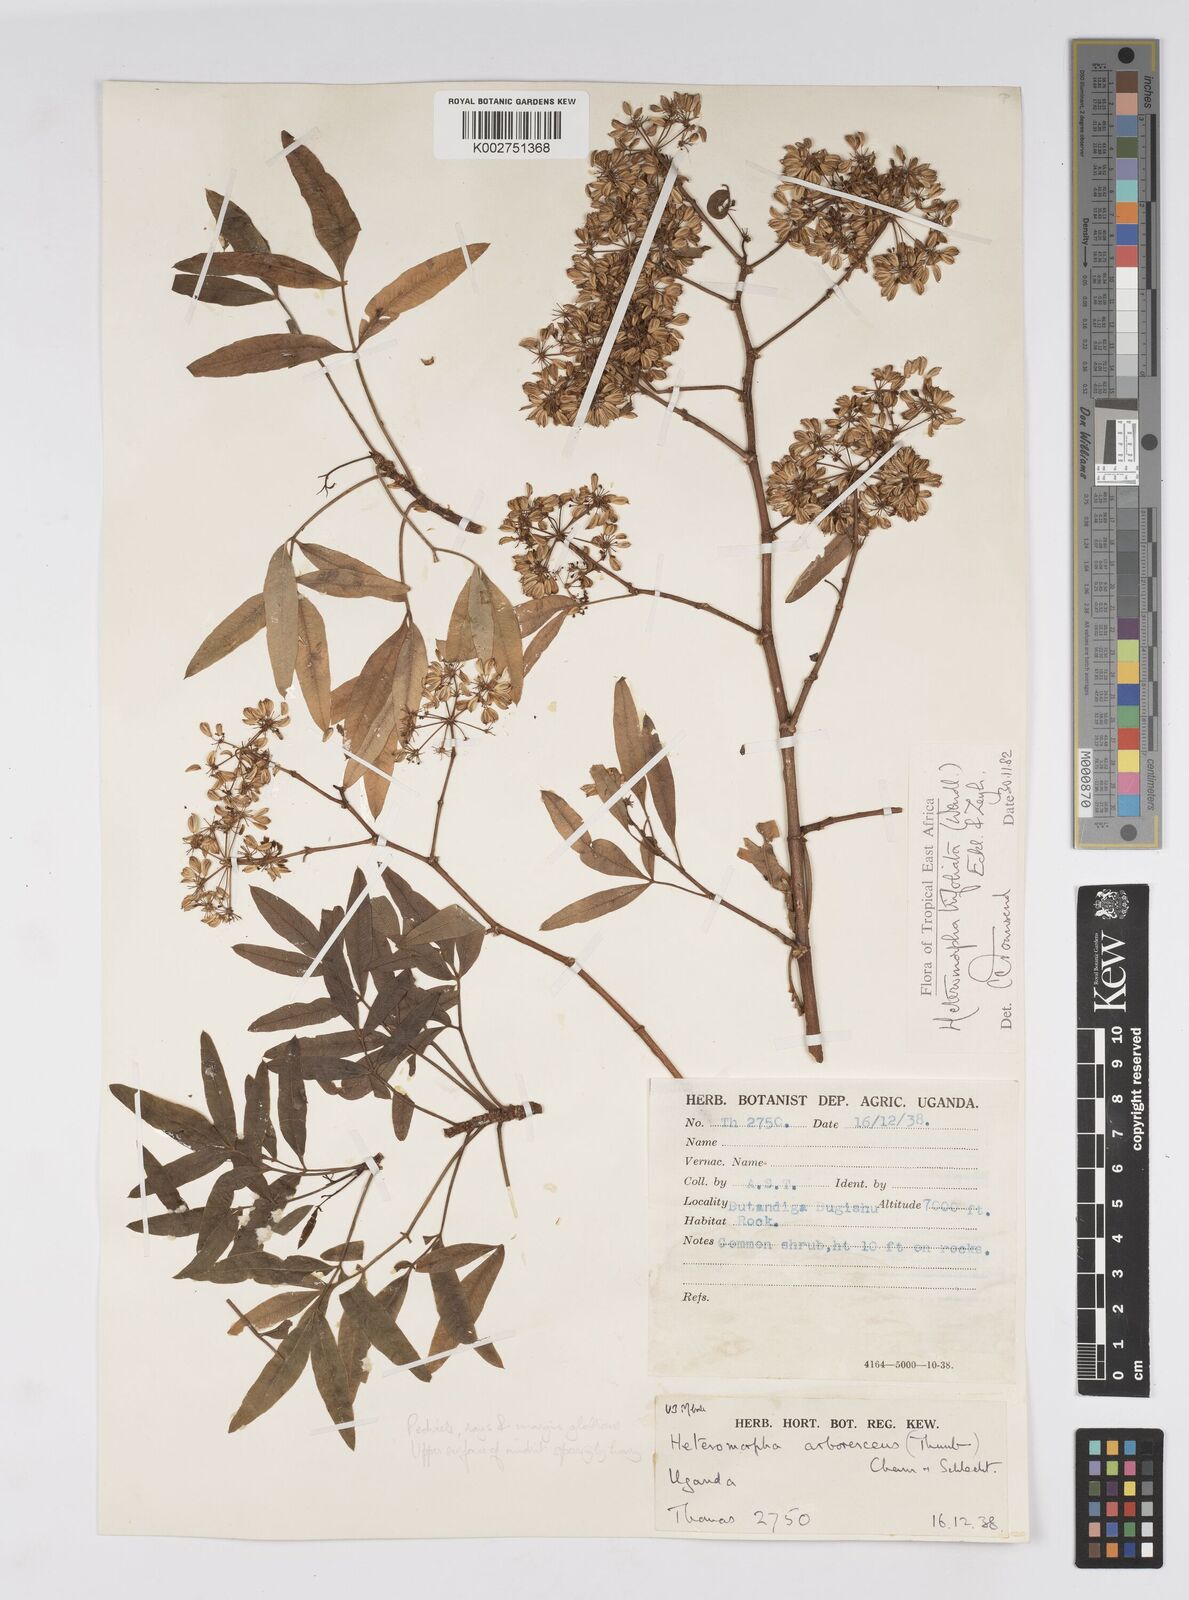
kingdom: Plantae
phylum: Tracheophyta
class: Magnoliopsida
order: Apiales
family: Apiaceae
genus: Heteromorpha
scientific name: Heteromorpha arborescens
